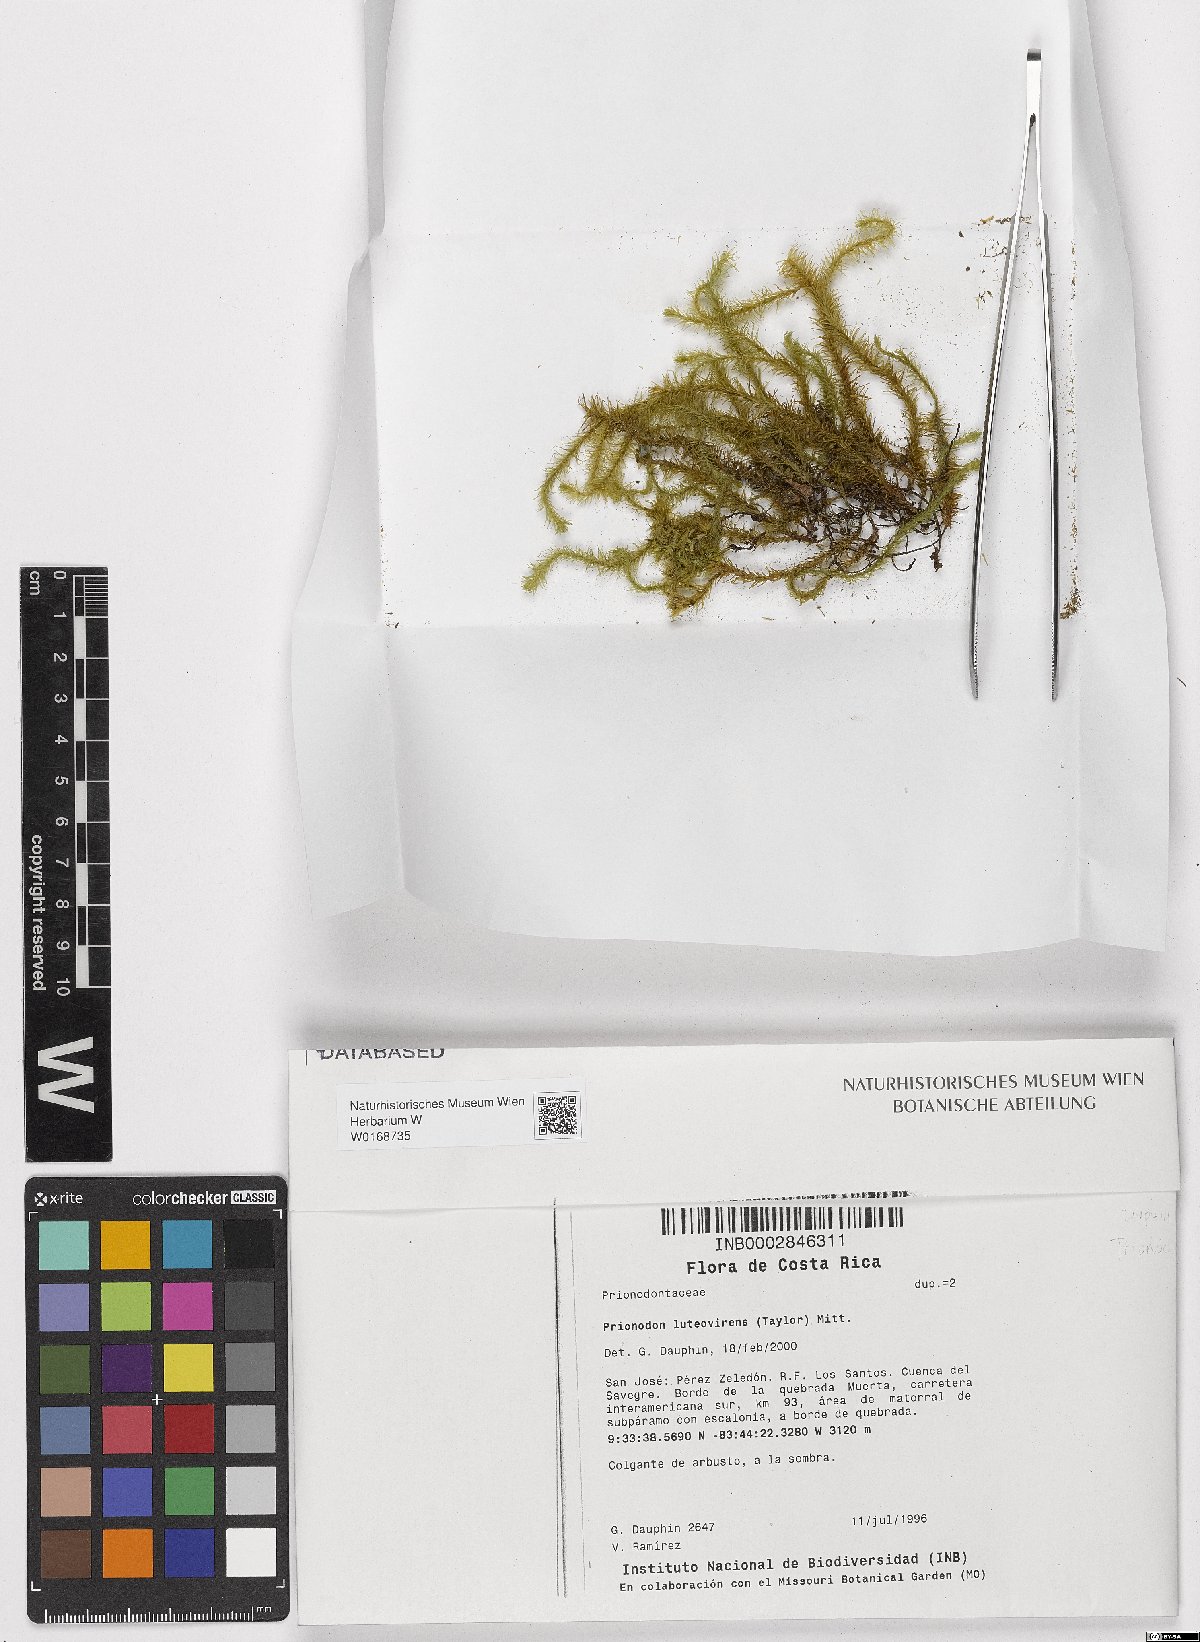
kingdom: Plantae
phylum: Bryophyta
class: Bryopsida
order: Hypnales
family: Prionodontaceae
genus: Prionodon
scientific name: Prionodon luteovirens
